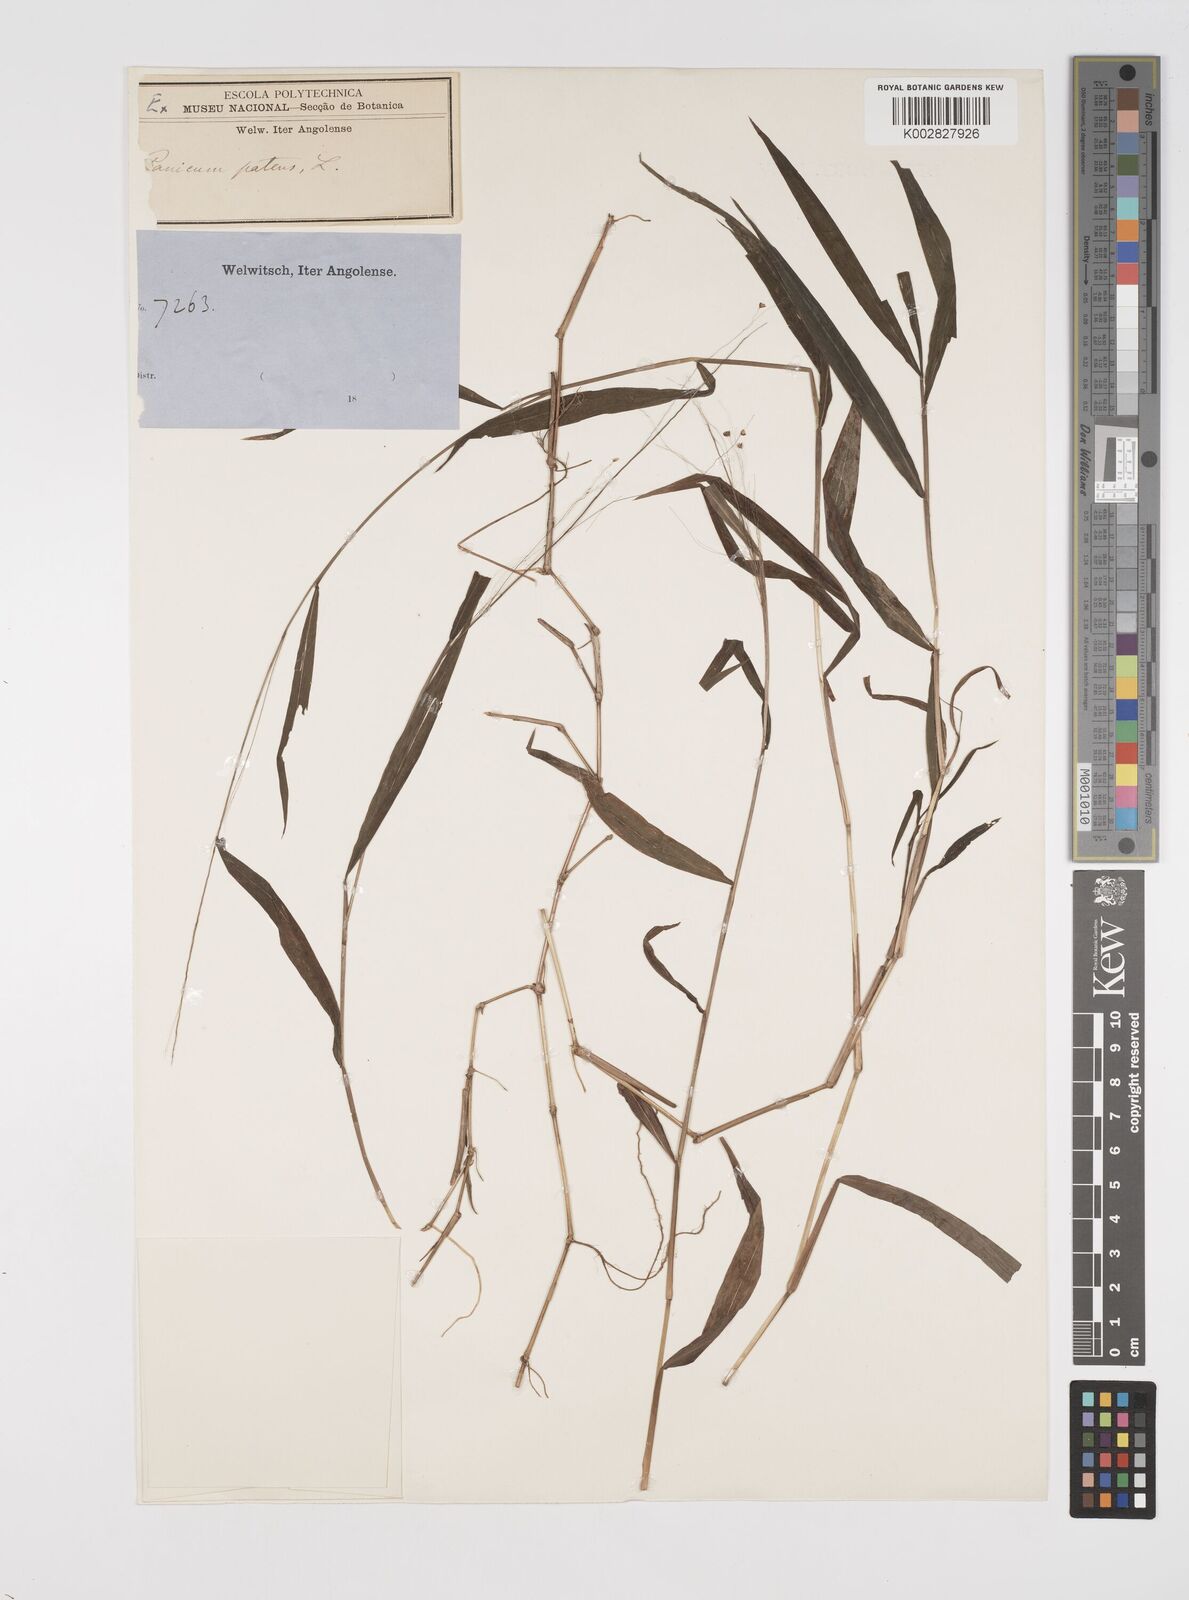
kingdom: Plantae
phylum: Tracheophyta
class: Liliopsida
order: Poales
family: Poaceae
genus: Cyrtococcum
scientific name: Cyrtococcum chaetophoron
